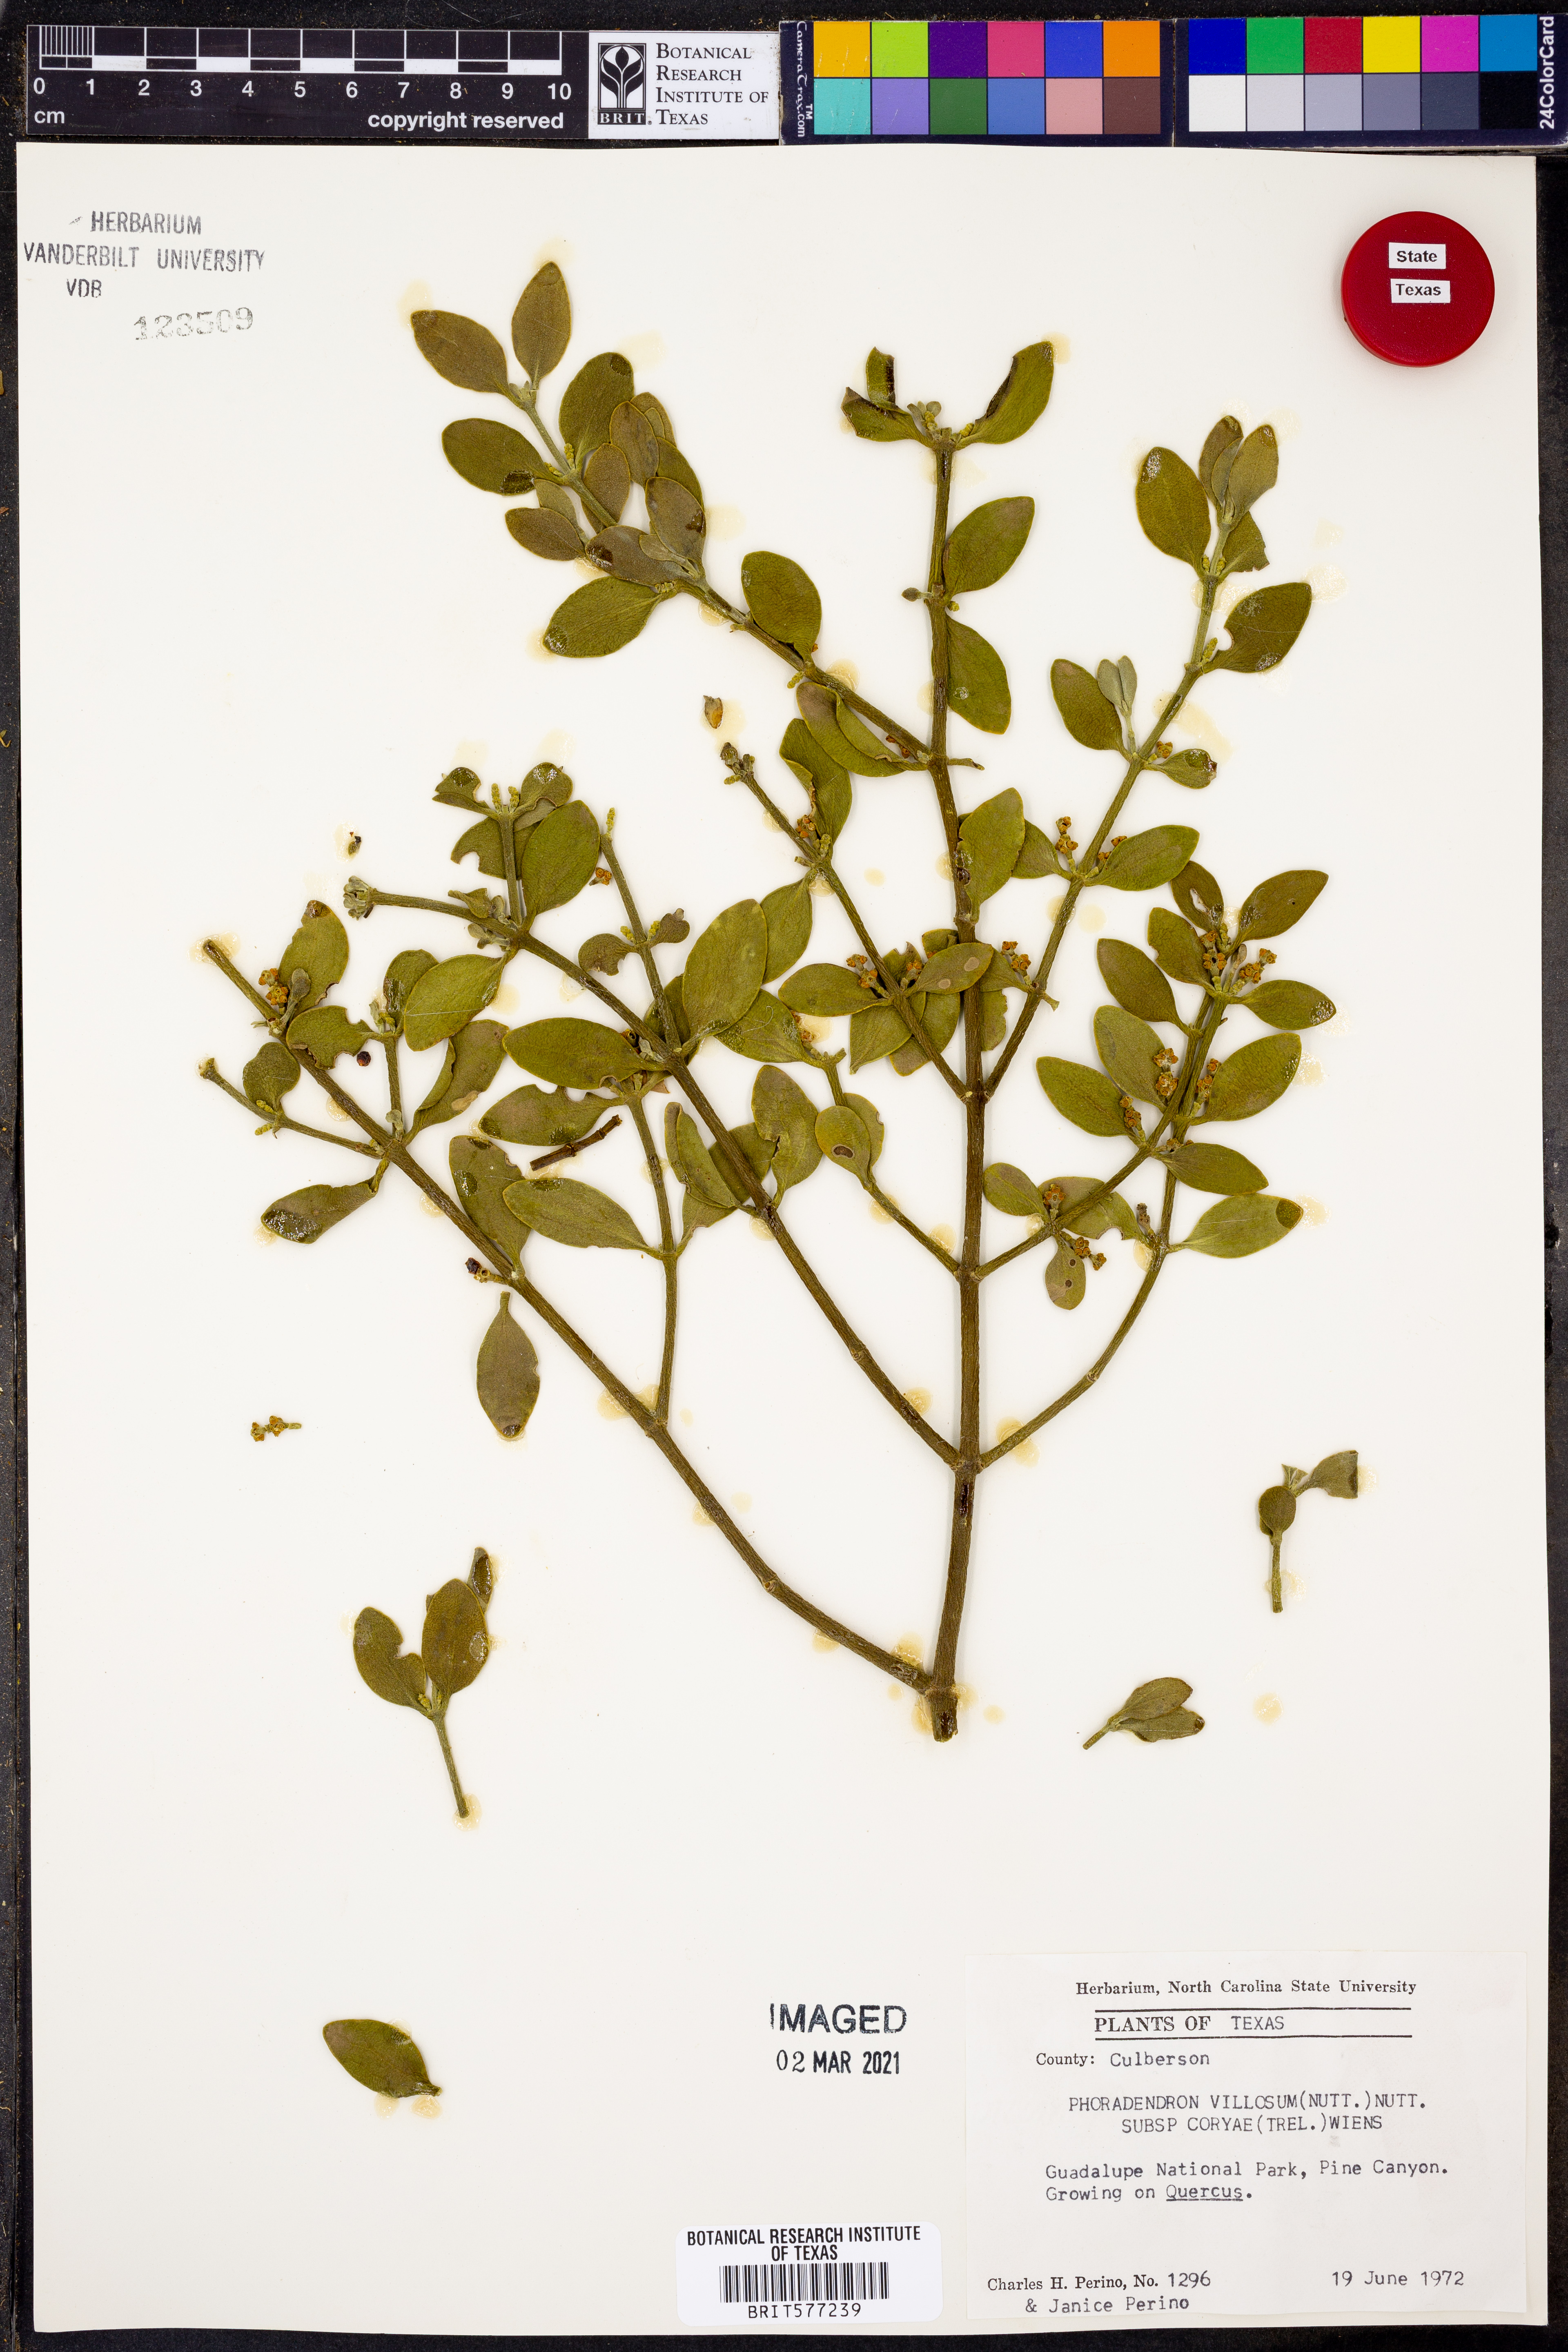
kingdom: Plantae
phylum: Tracheophyta
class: Magnoliopsida
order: Santalales
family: Viscaceae
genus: Phoradendron
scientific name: Phoradendron coryae
